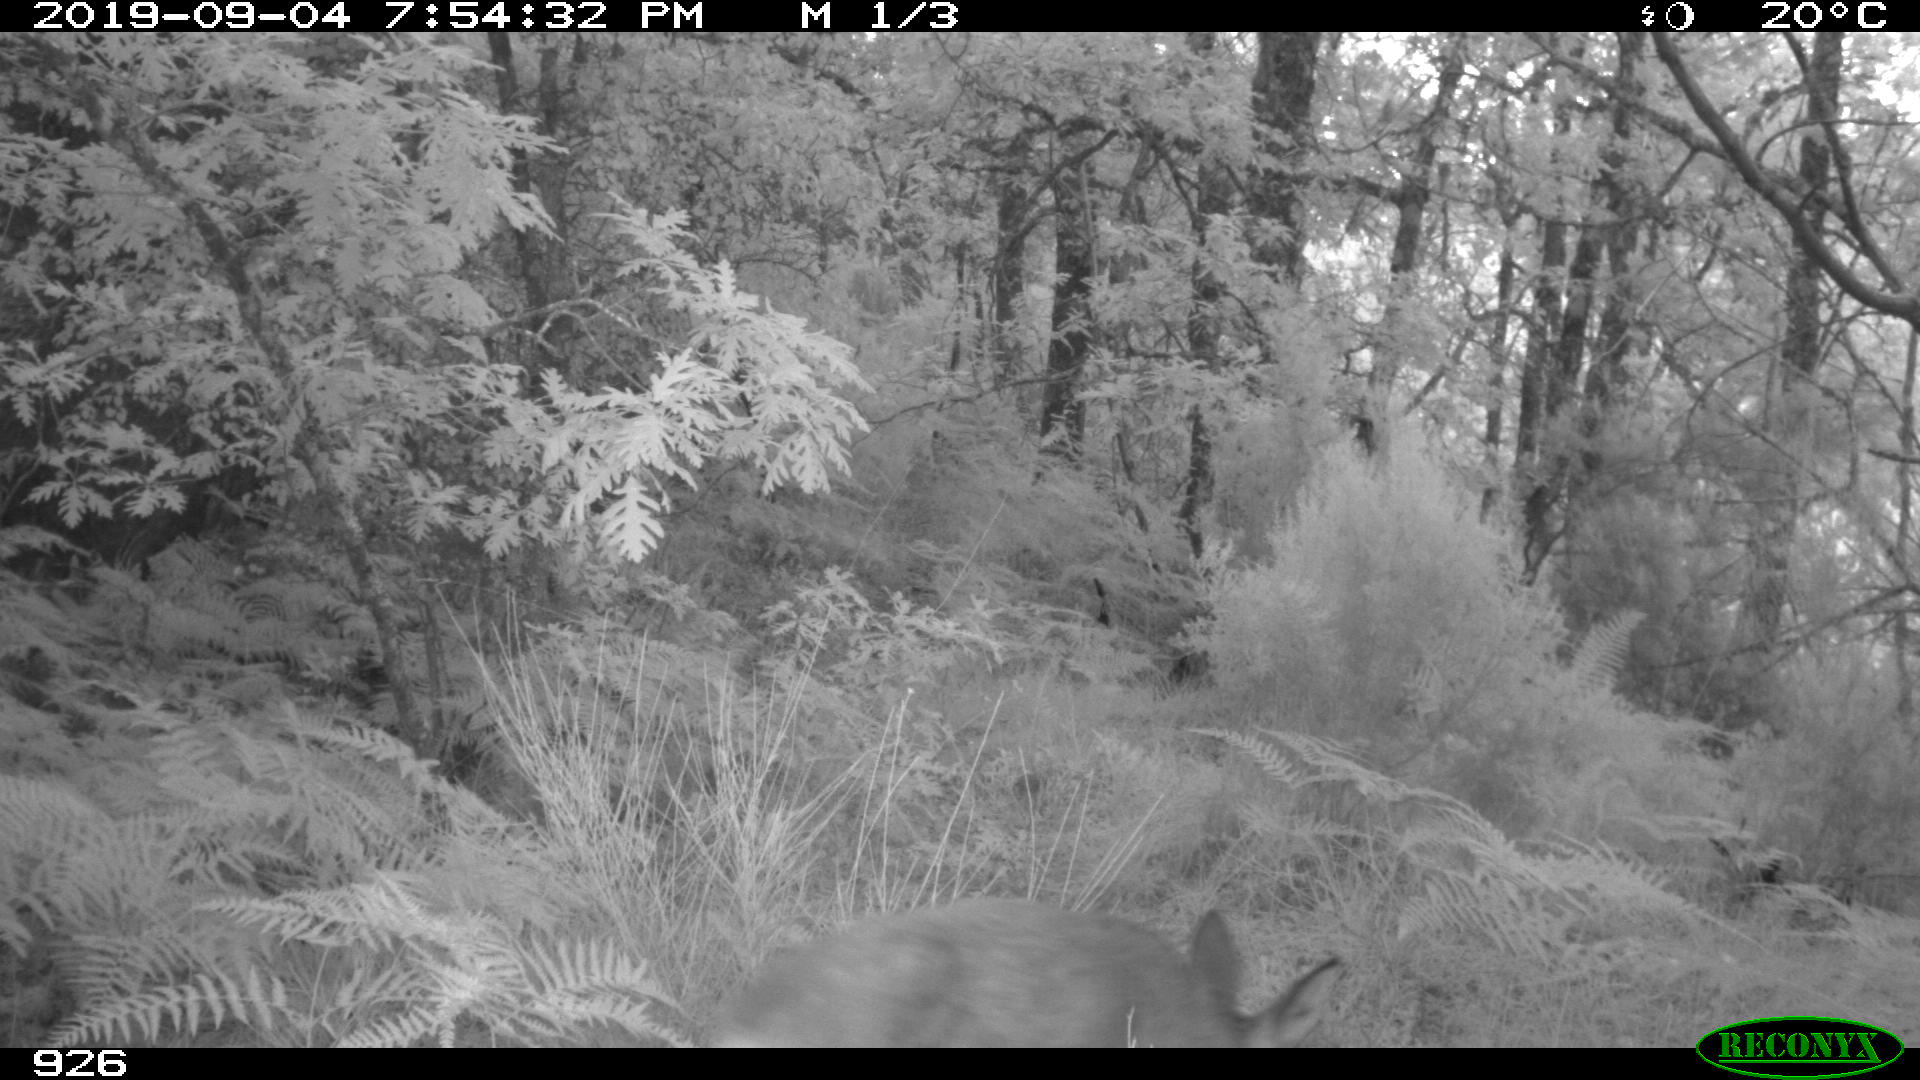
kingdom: Animalia
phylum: Chordata
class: Mammalia
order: Artiodactyla
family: Cervidae
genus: Capreolus
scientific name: Capreolus capreolus
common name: Western roe deer
